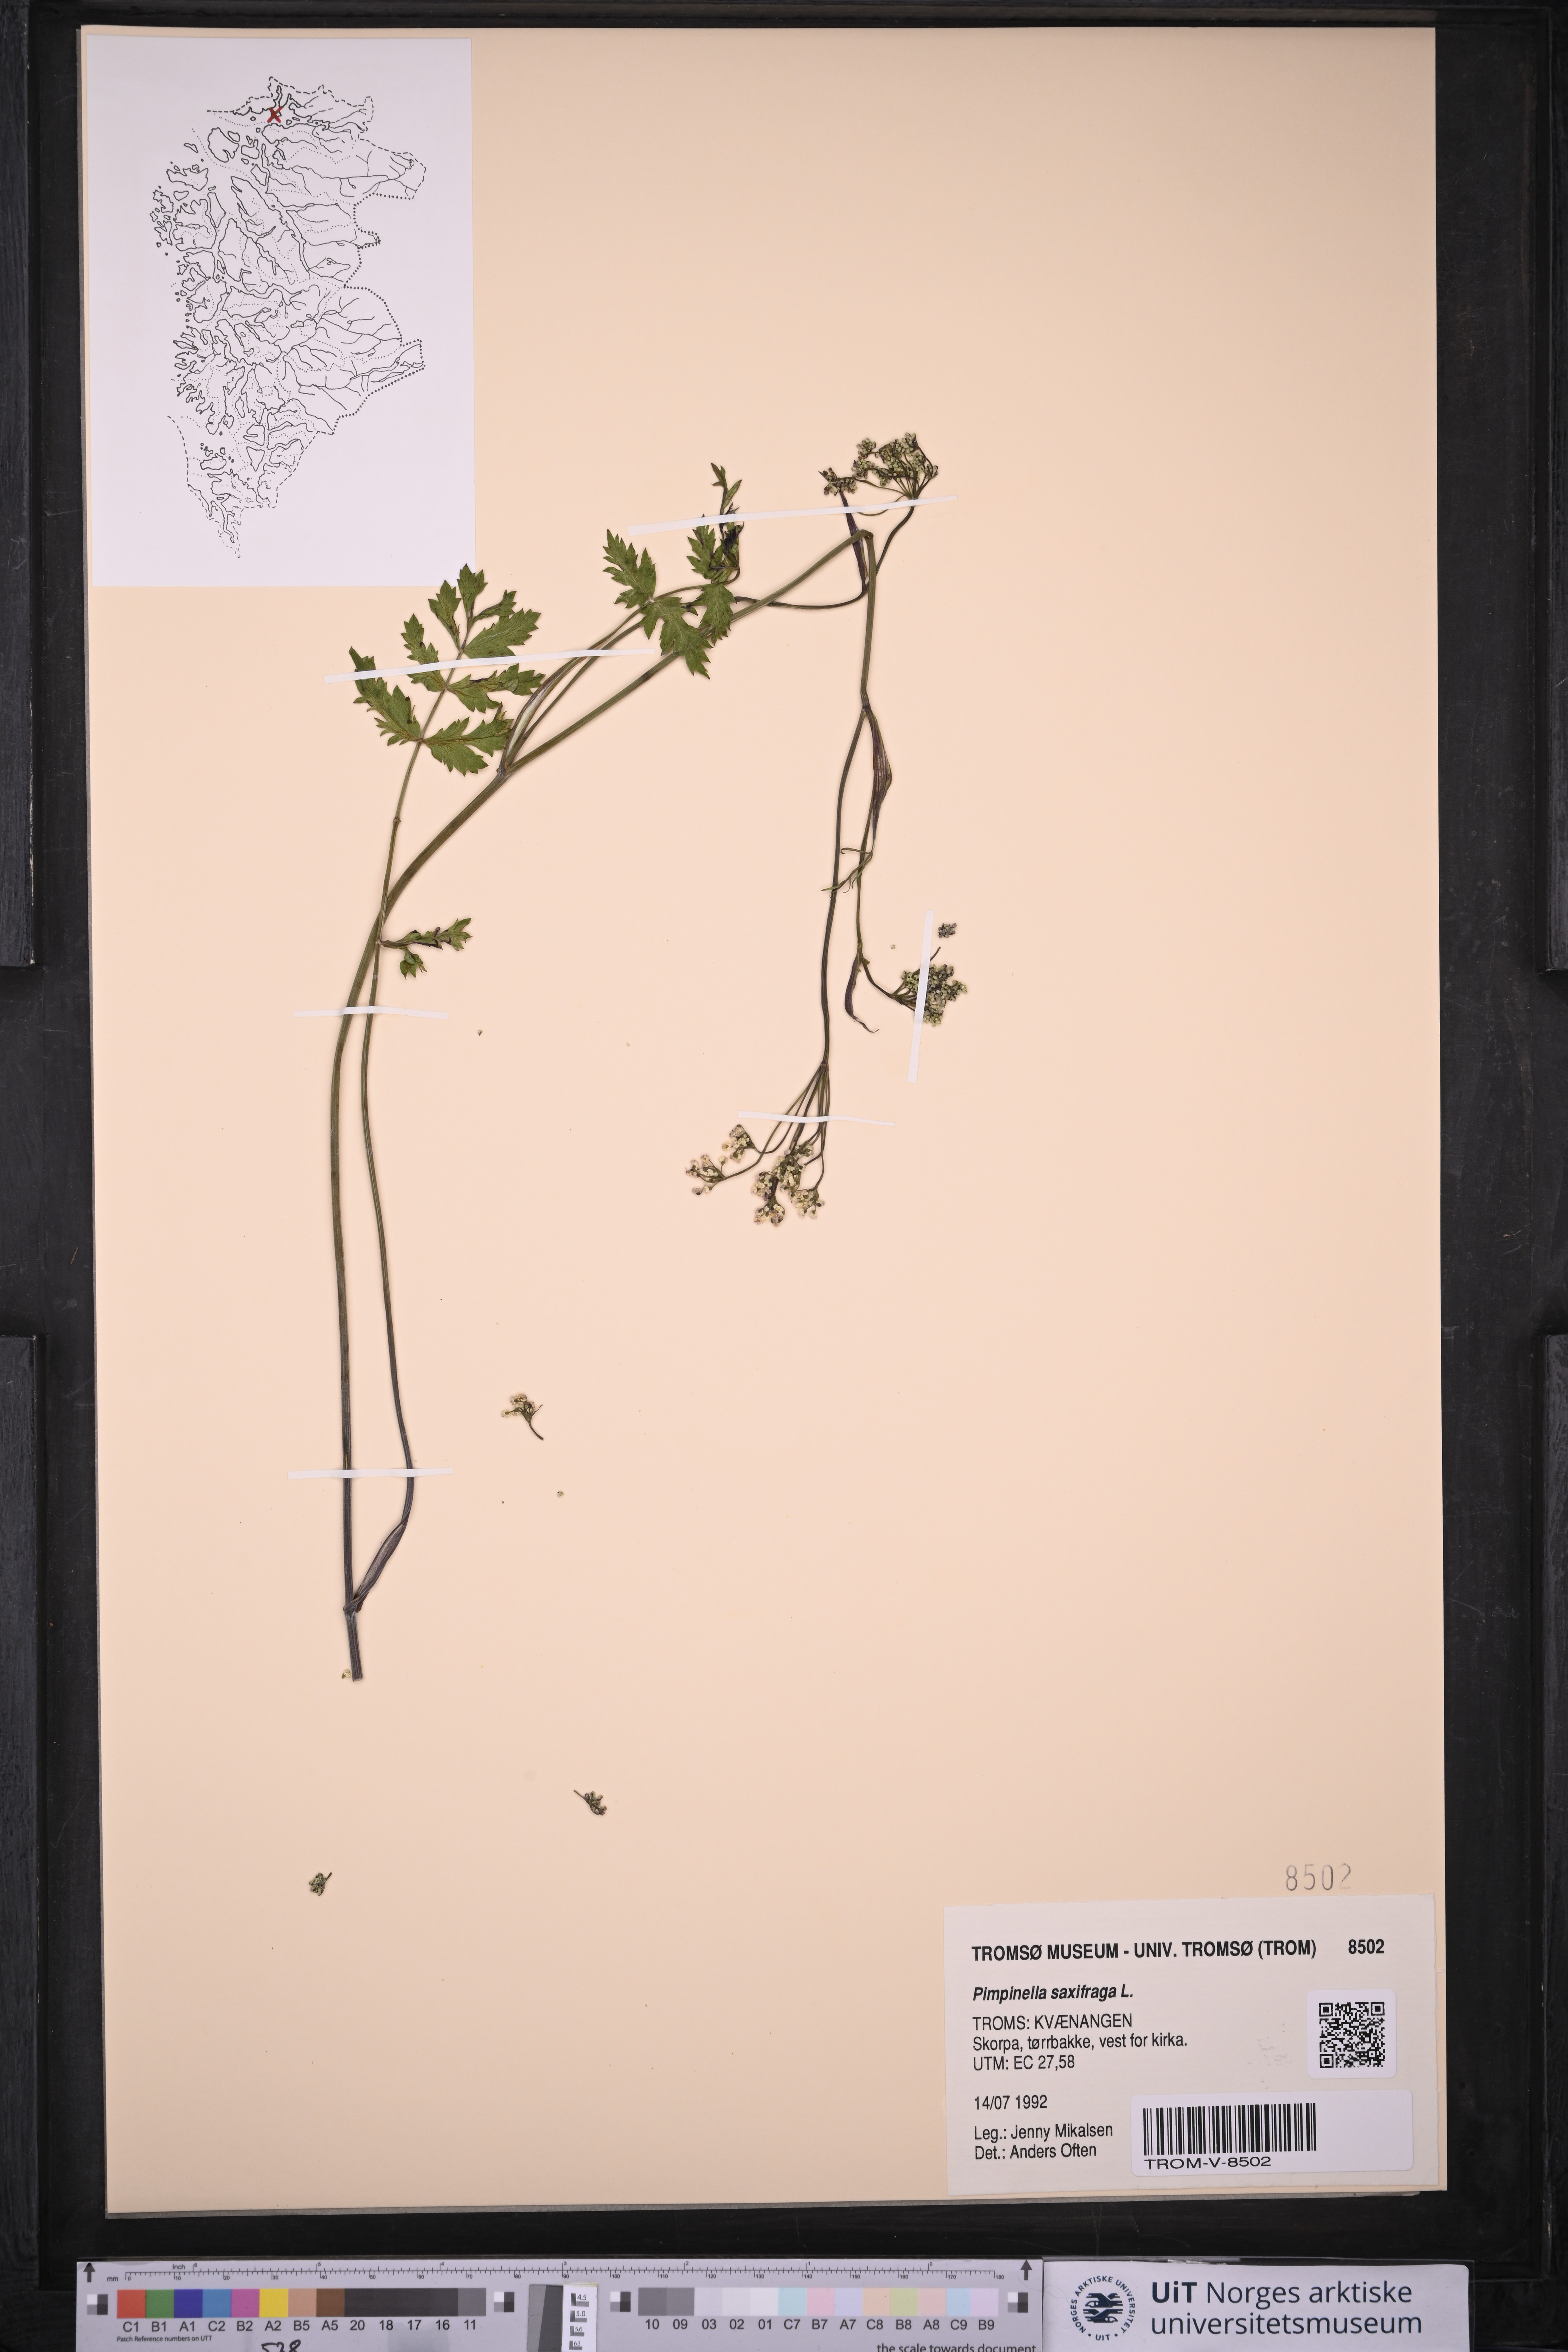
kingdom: Plantae
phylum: Tracheophyta
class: Magnoliopsida
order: Apiales
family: Apiaceae
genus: Pimpinella
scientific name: Pimpinella saxifraga
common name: Burnet-saxifrage
